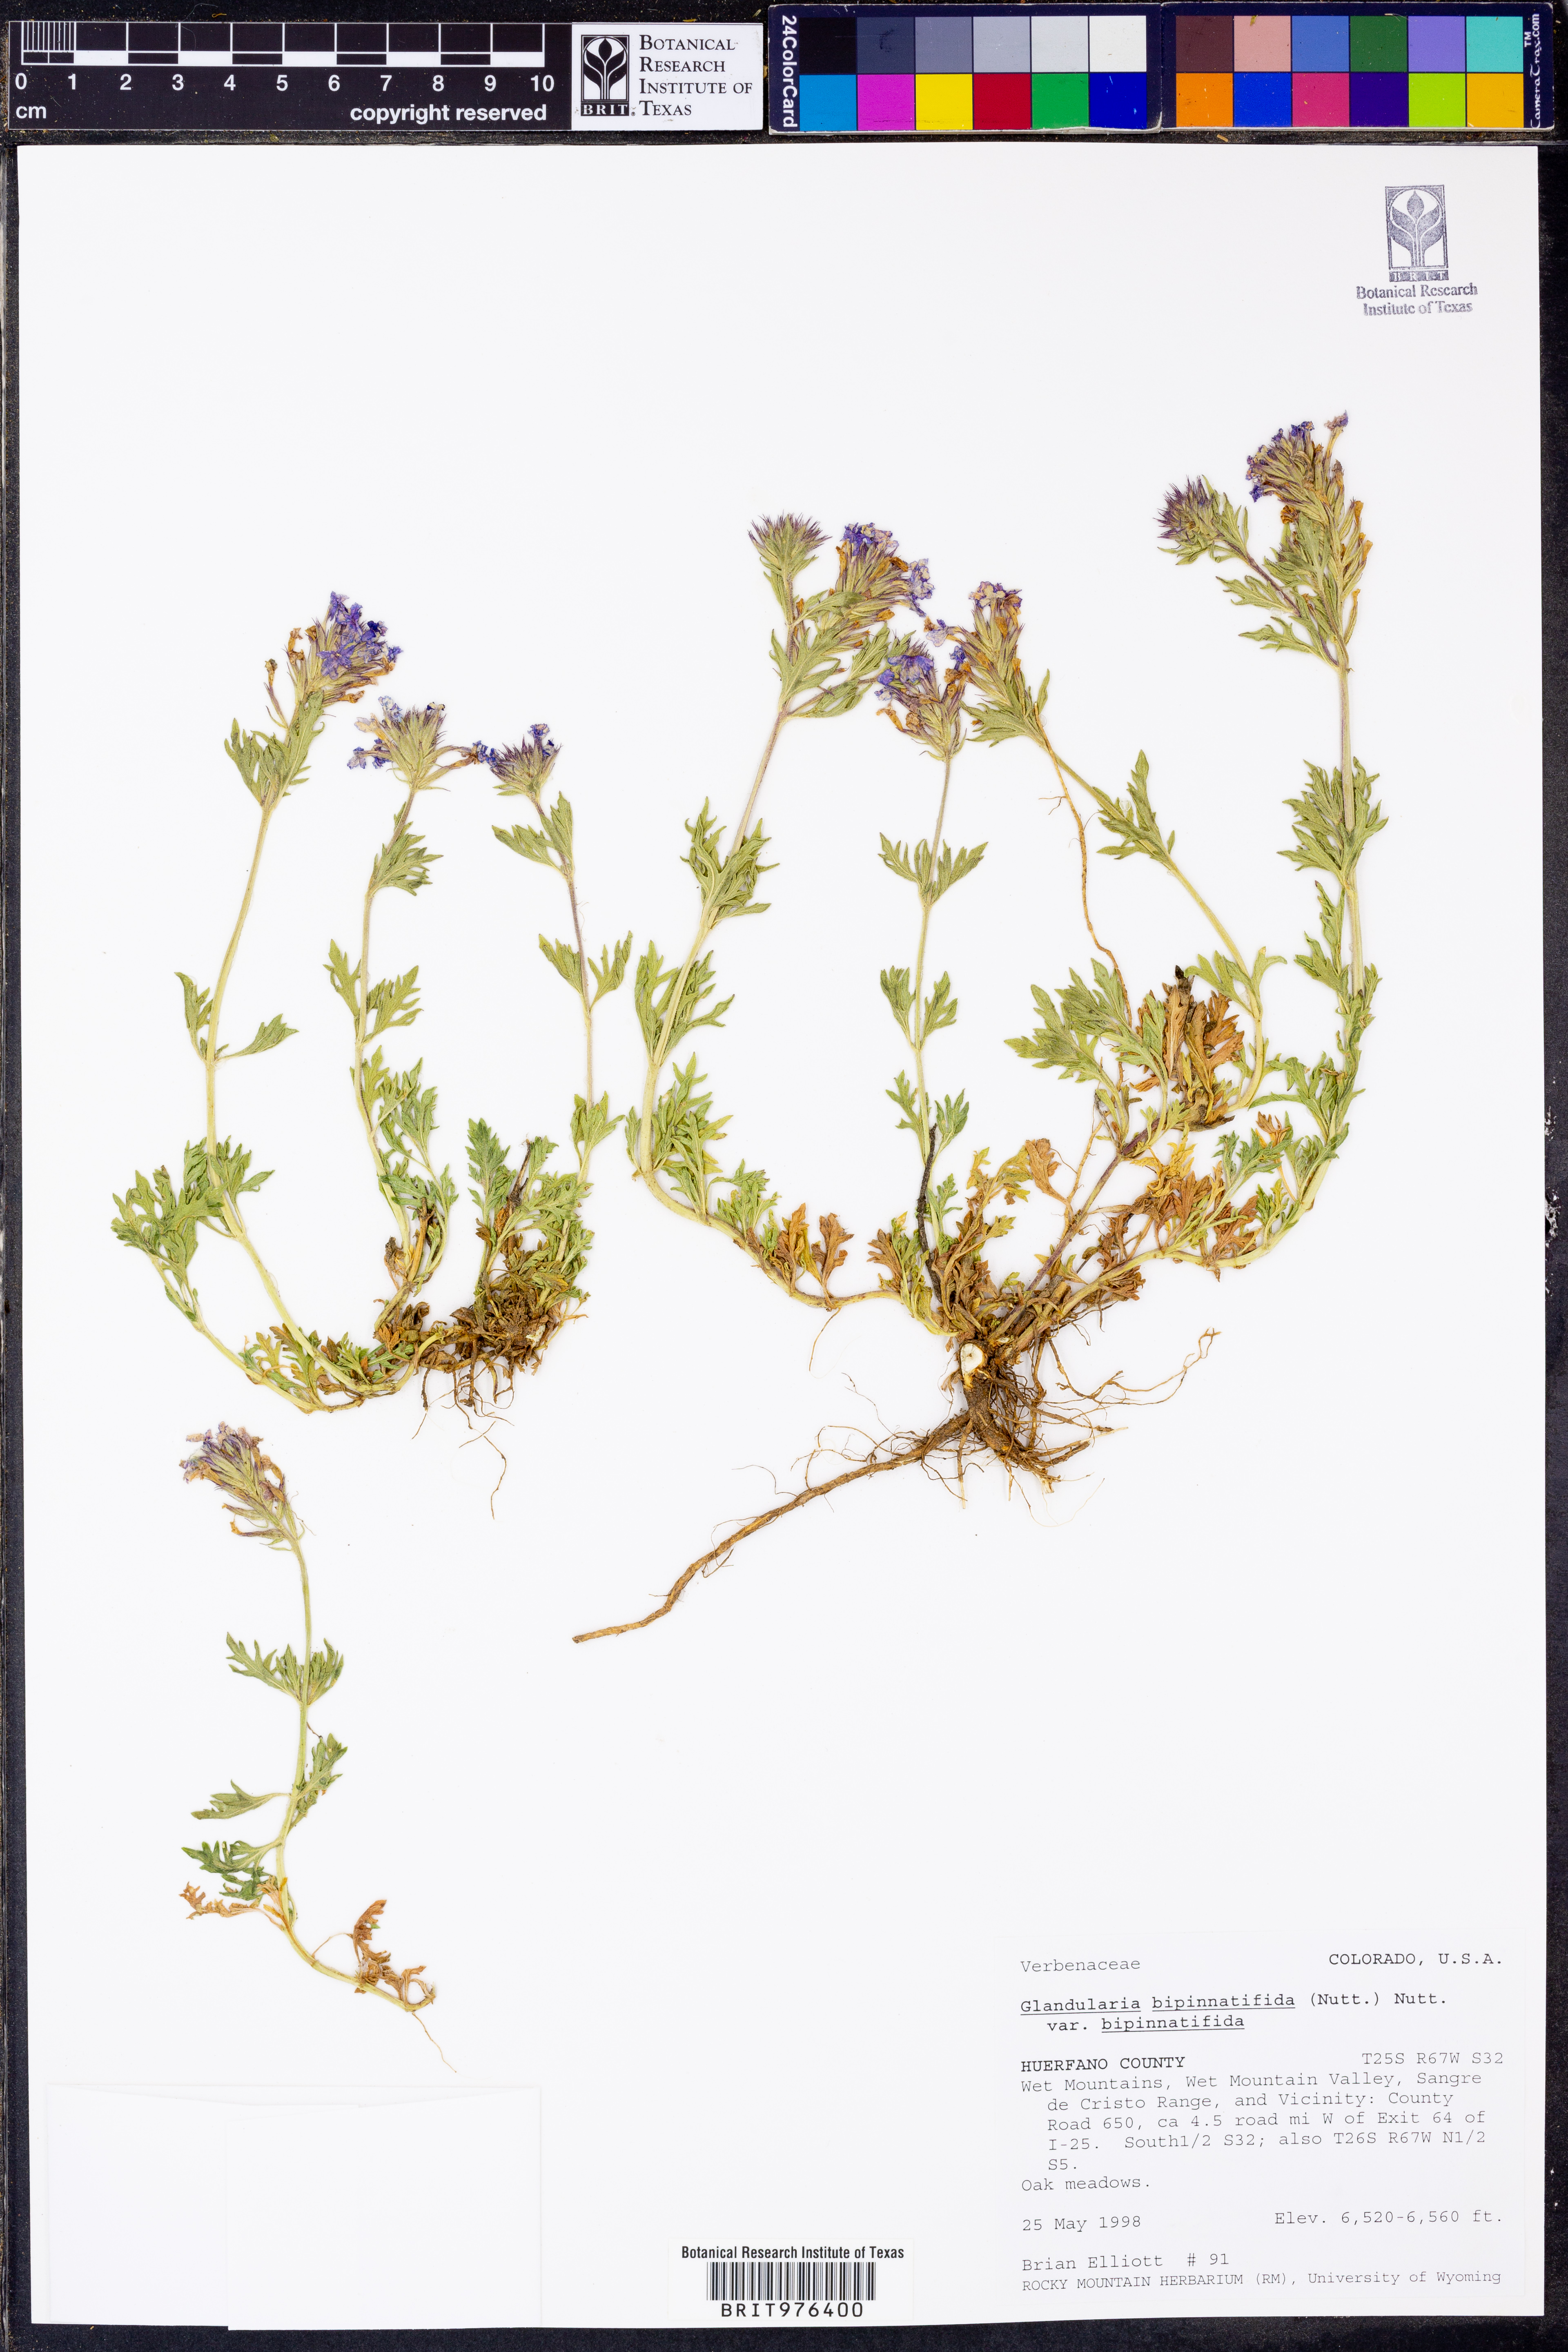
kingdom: Plantae
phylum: Tracheophyta
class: Magnoliopsida
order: Lamiales
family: Verbenaceae
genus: Verbena
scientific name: Verbena bipinnatifida
